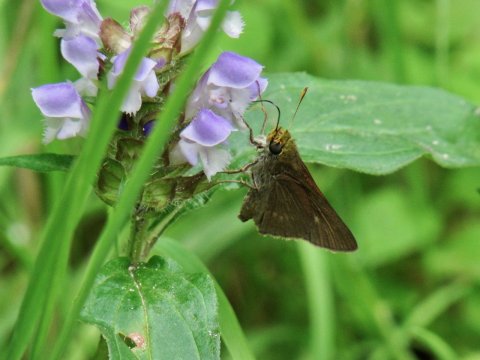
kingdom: Animalia
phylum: Arthropoda
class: Insecta
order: Lepidoptera
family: Hesperiidae
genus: Euphyes
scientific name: Euphyes vestris
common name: Dun Skipper
